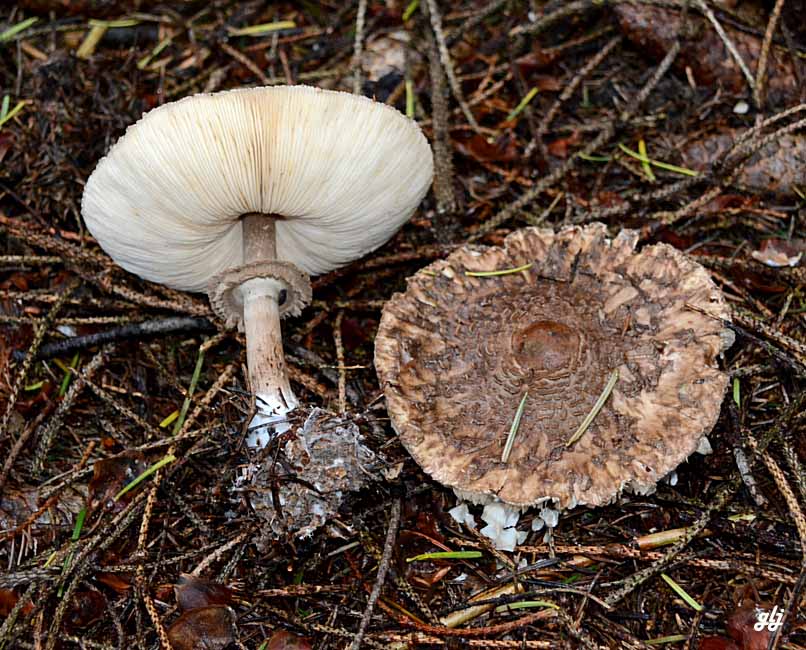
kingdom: Fungi
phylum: Basidiomycota
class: Agaricomycetes
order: Agaricales
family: Agaricaceae
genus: Chlorophyllum
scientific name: Chlorophyllum olivieri
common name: almindelig rabarberhat
